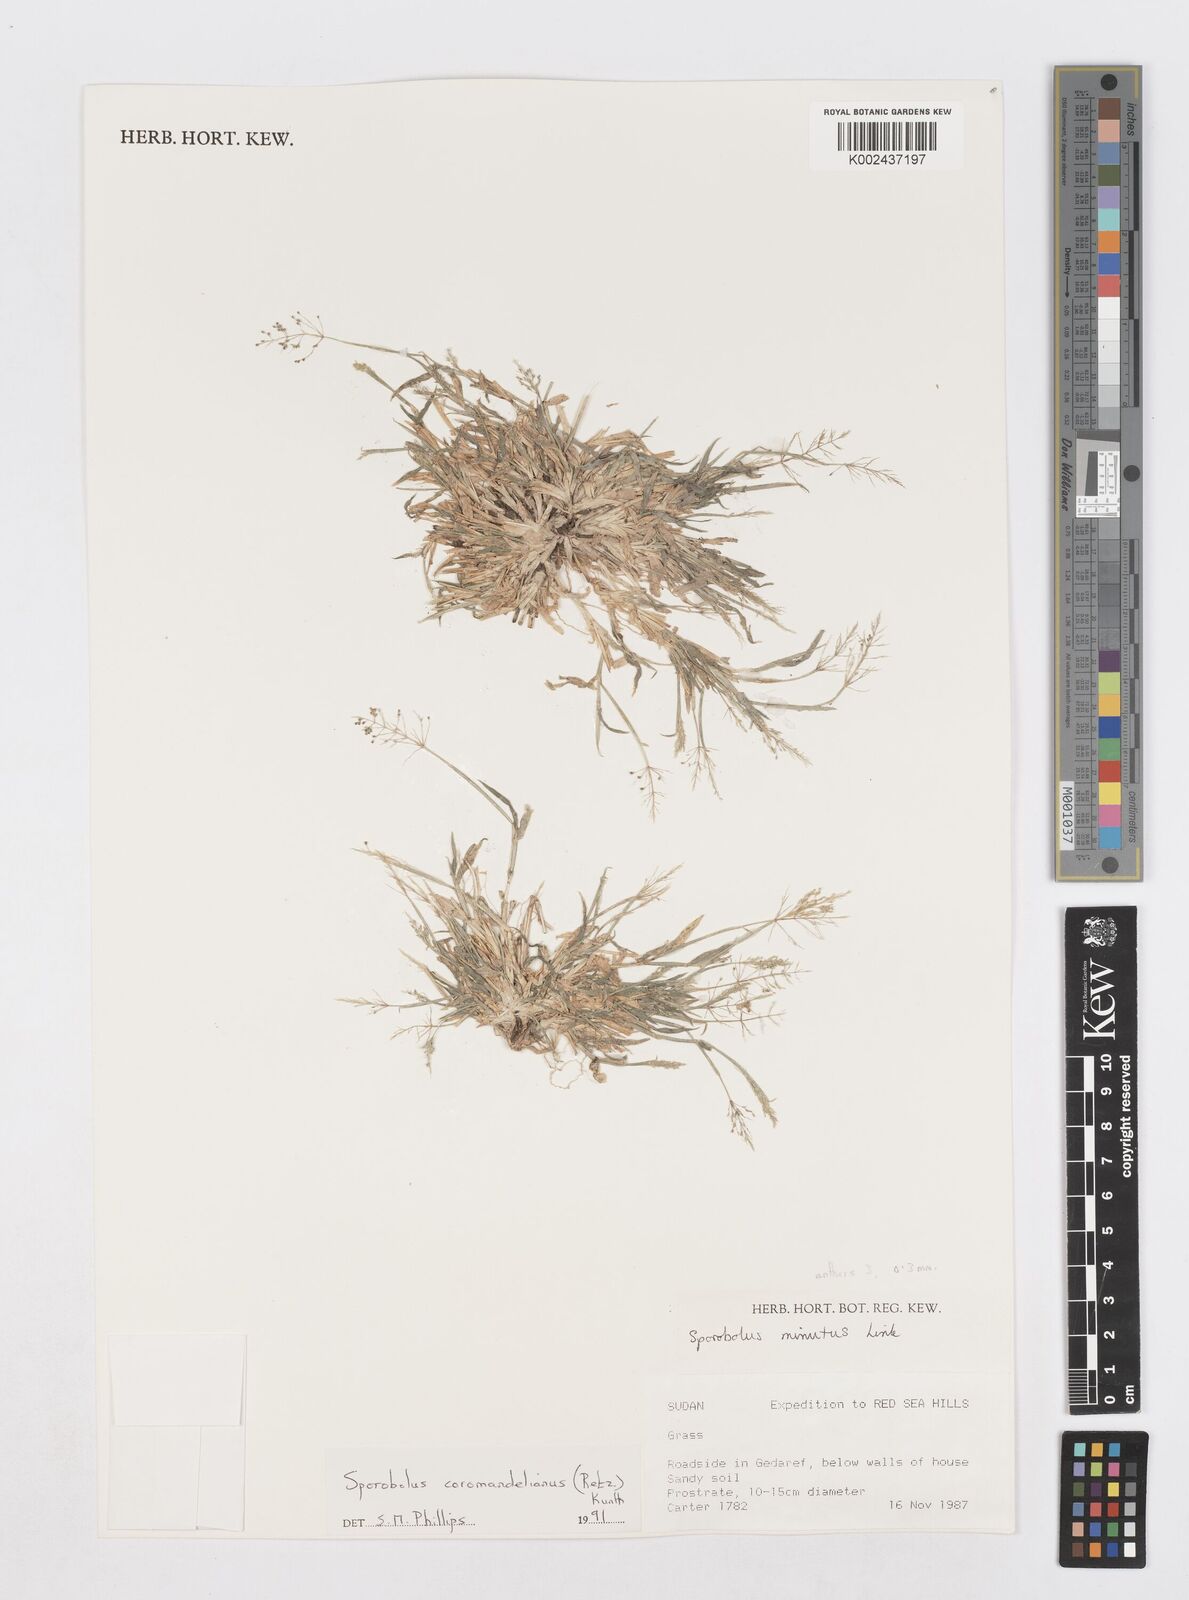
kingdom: Plantae
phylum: Tracheophyta
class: Liliopsida
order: Poales
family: Poaceae
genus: Sporobolus
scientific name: Sporobolus coromandelianus
